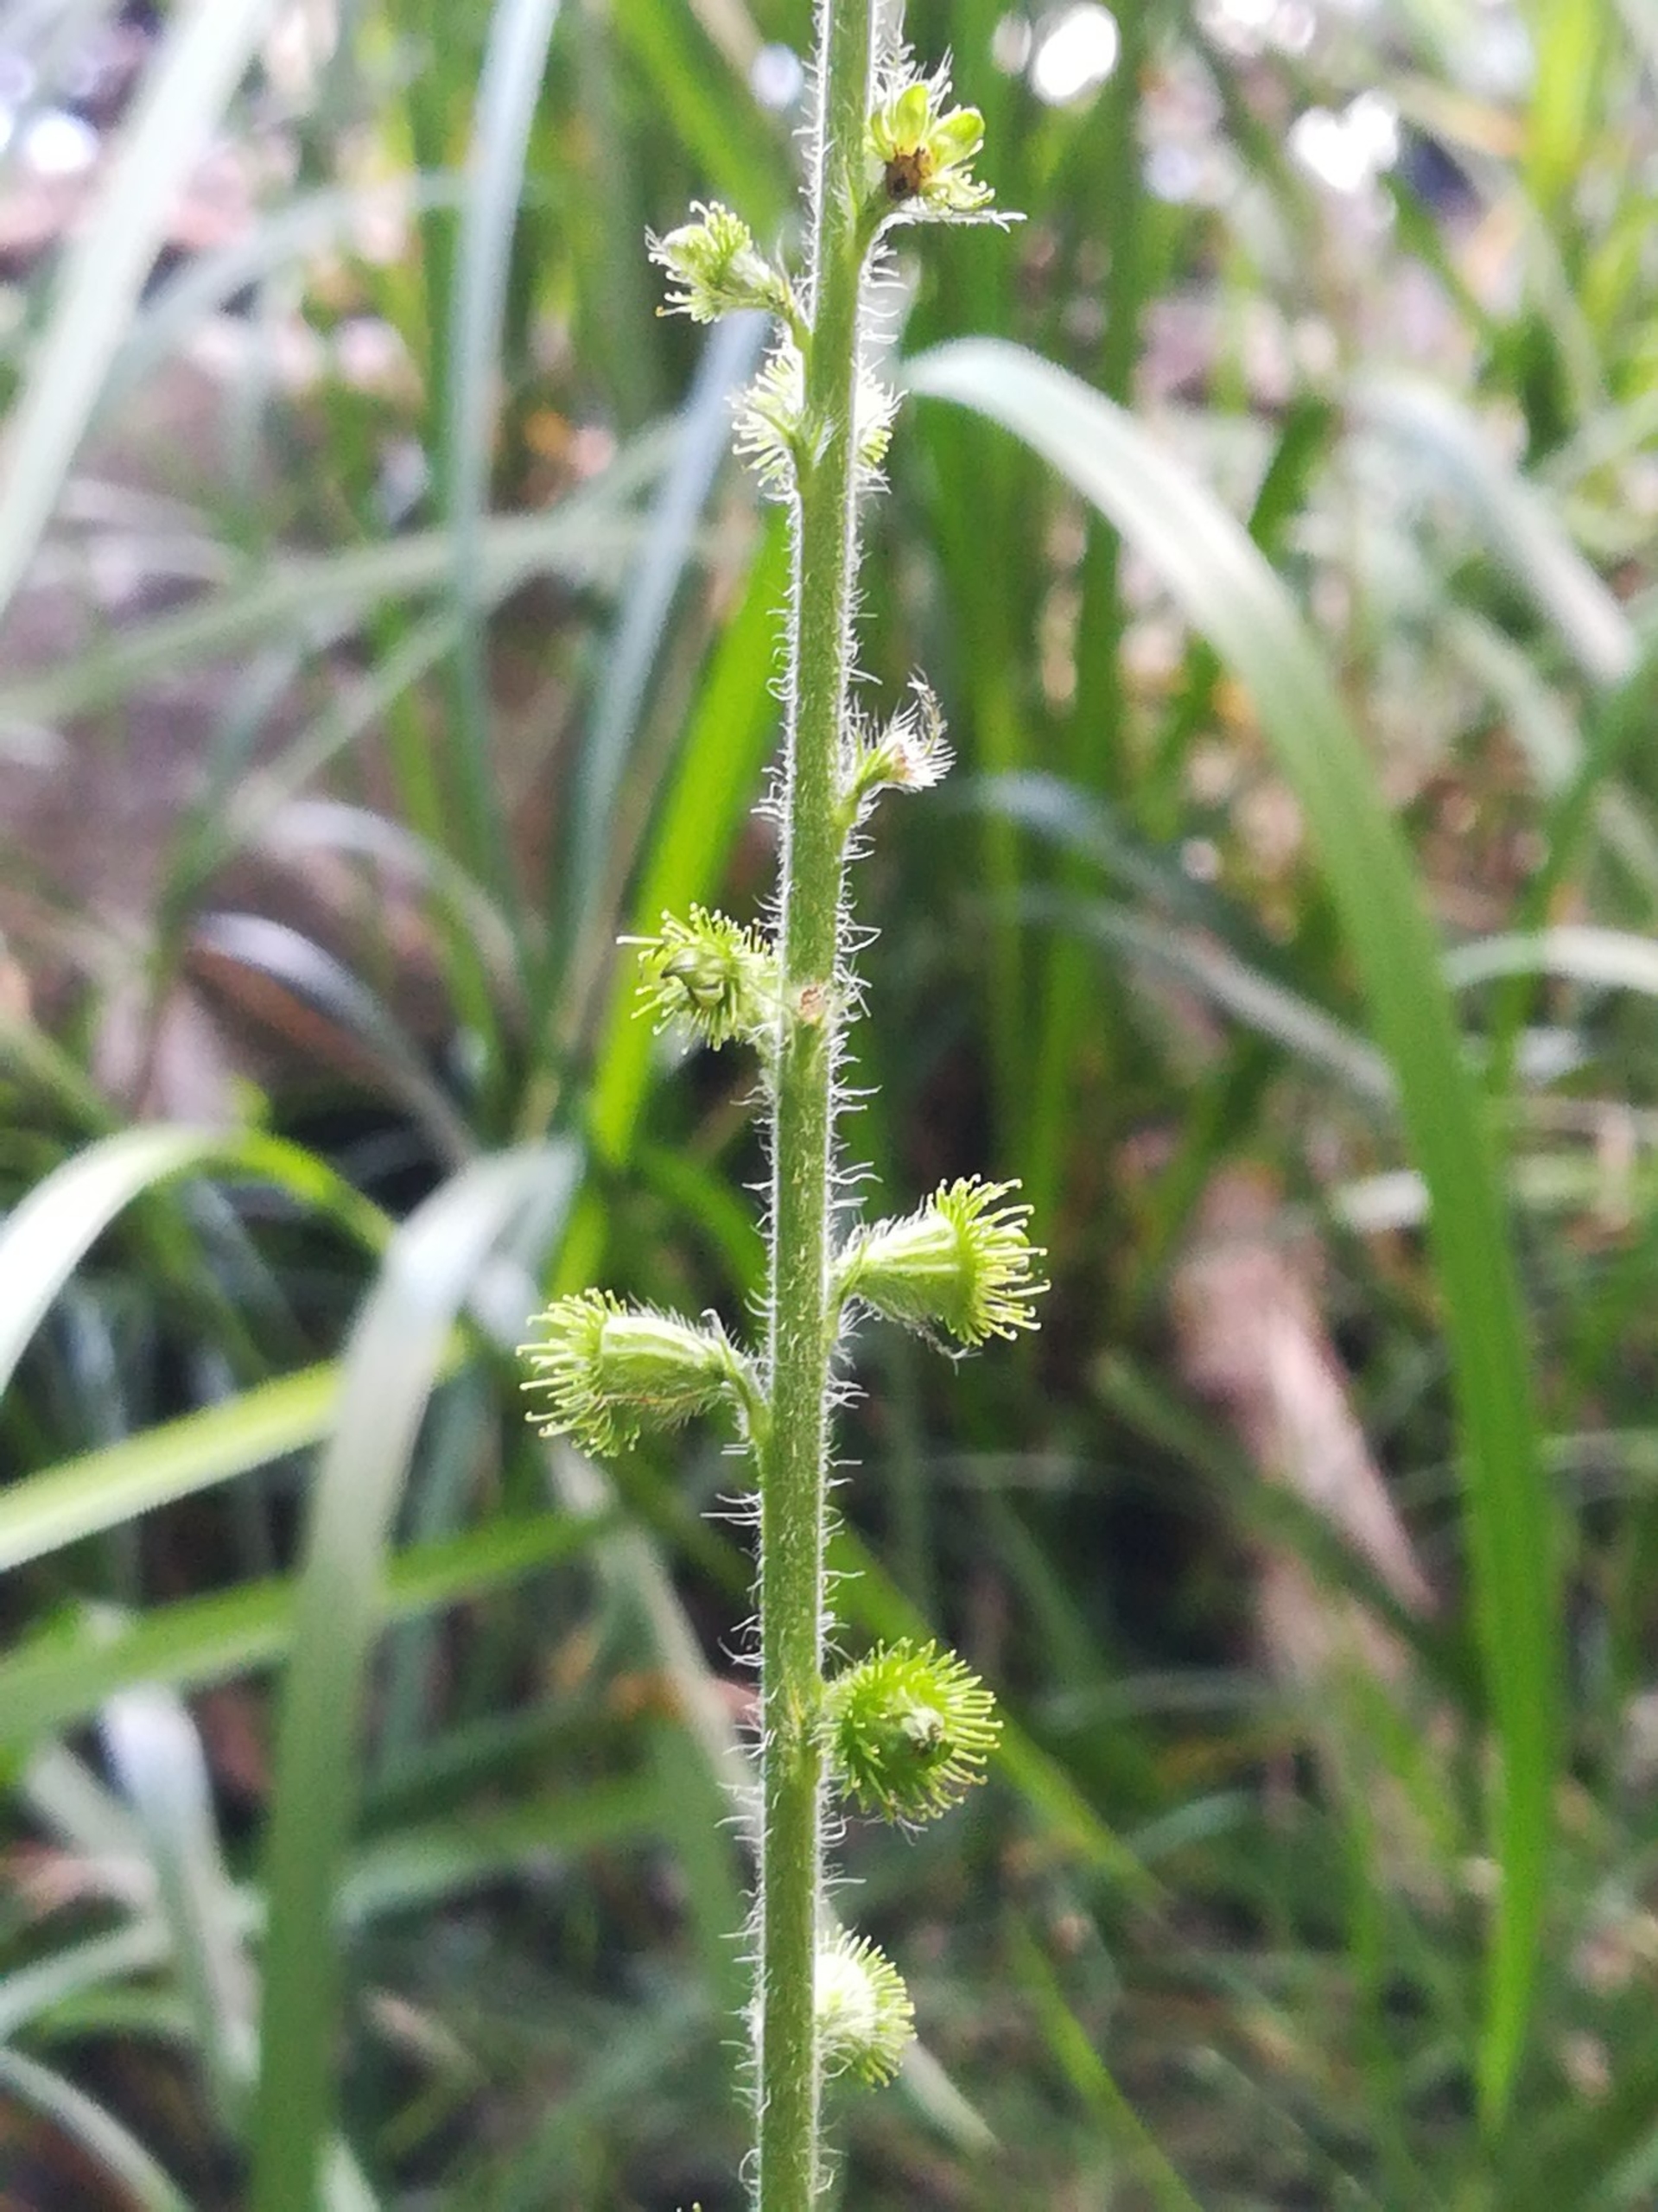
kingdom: Plantae
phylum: Tracheophyta
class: Magnoliopsida
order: Rosales
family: Rosaceae
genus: Agrimonia
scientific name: Agrimonia eupatoria
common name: Almindelig agermåne
